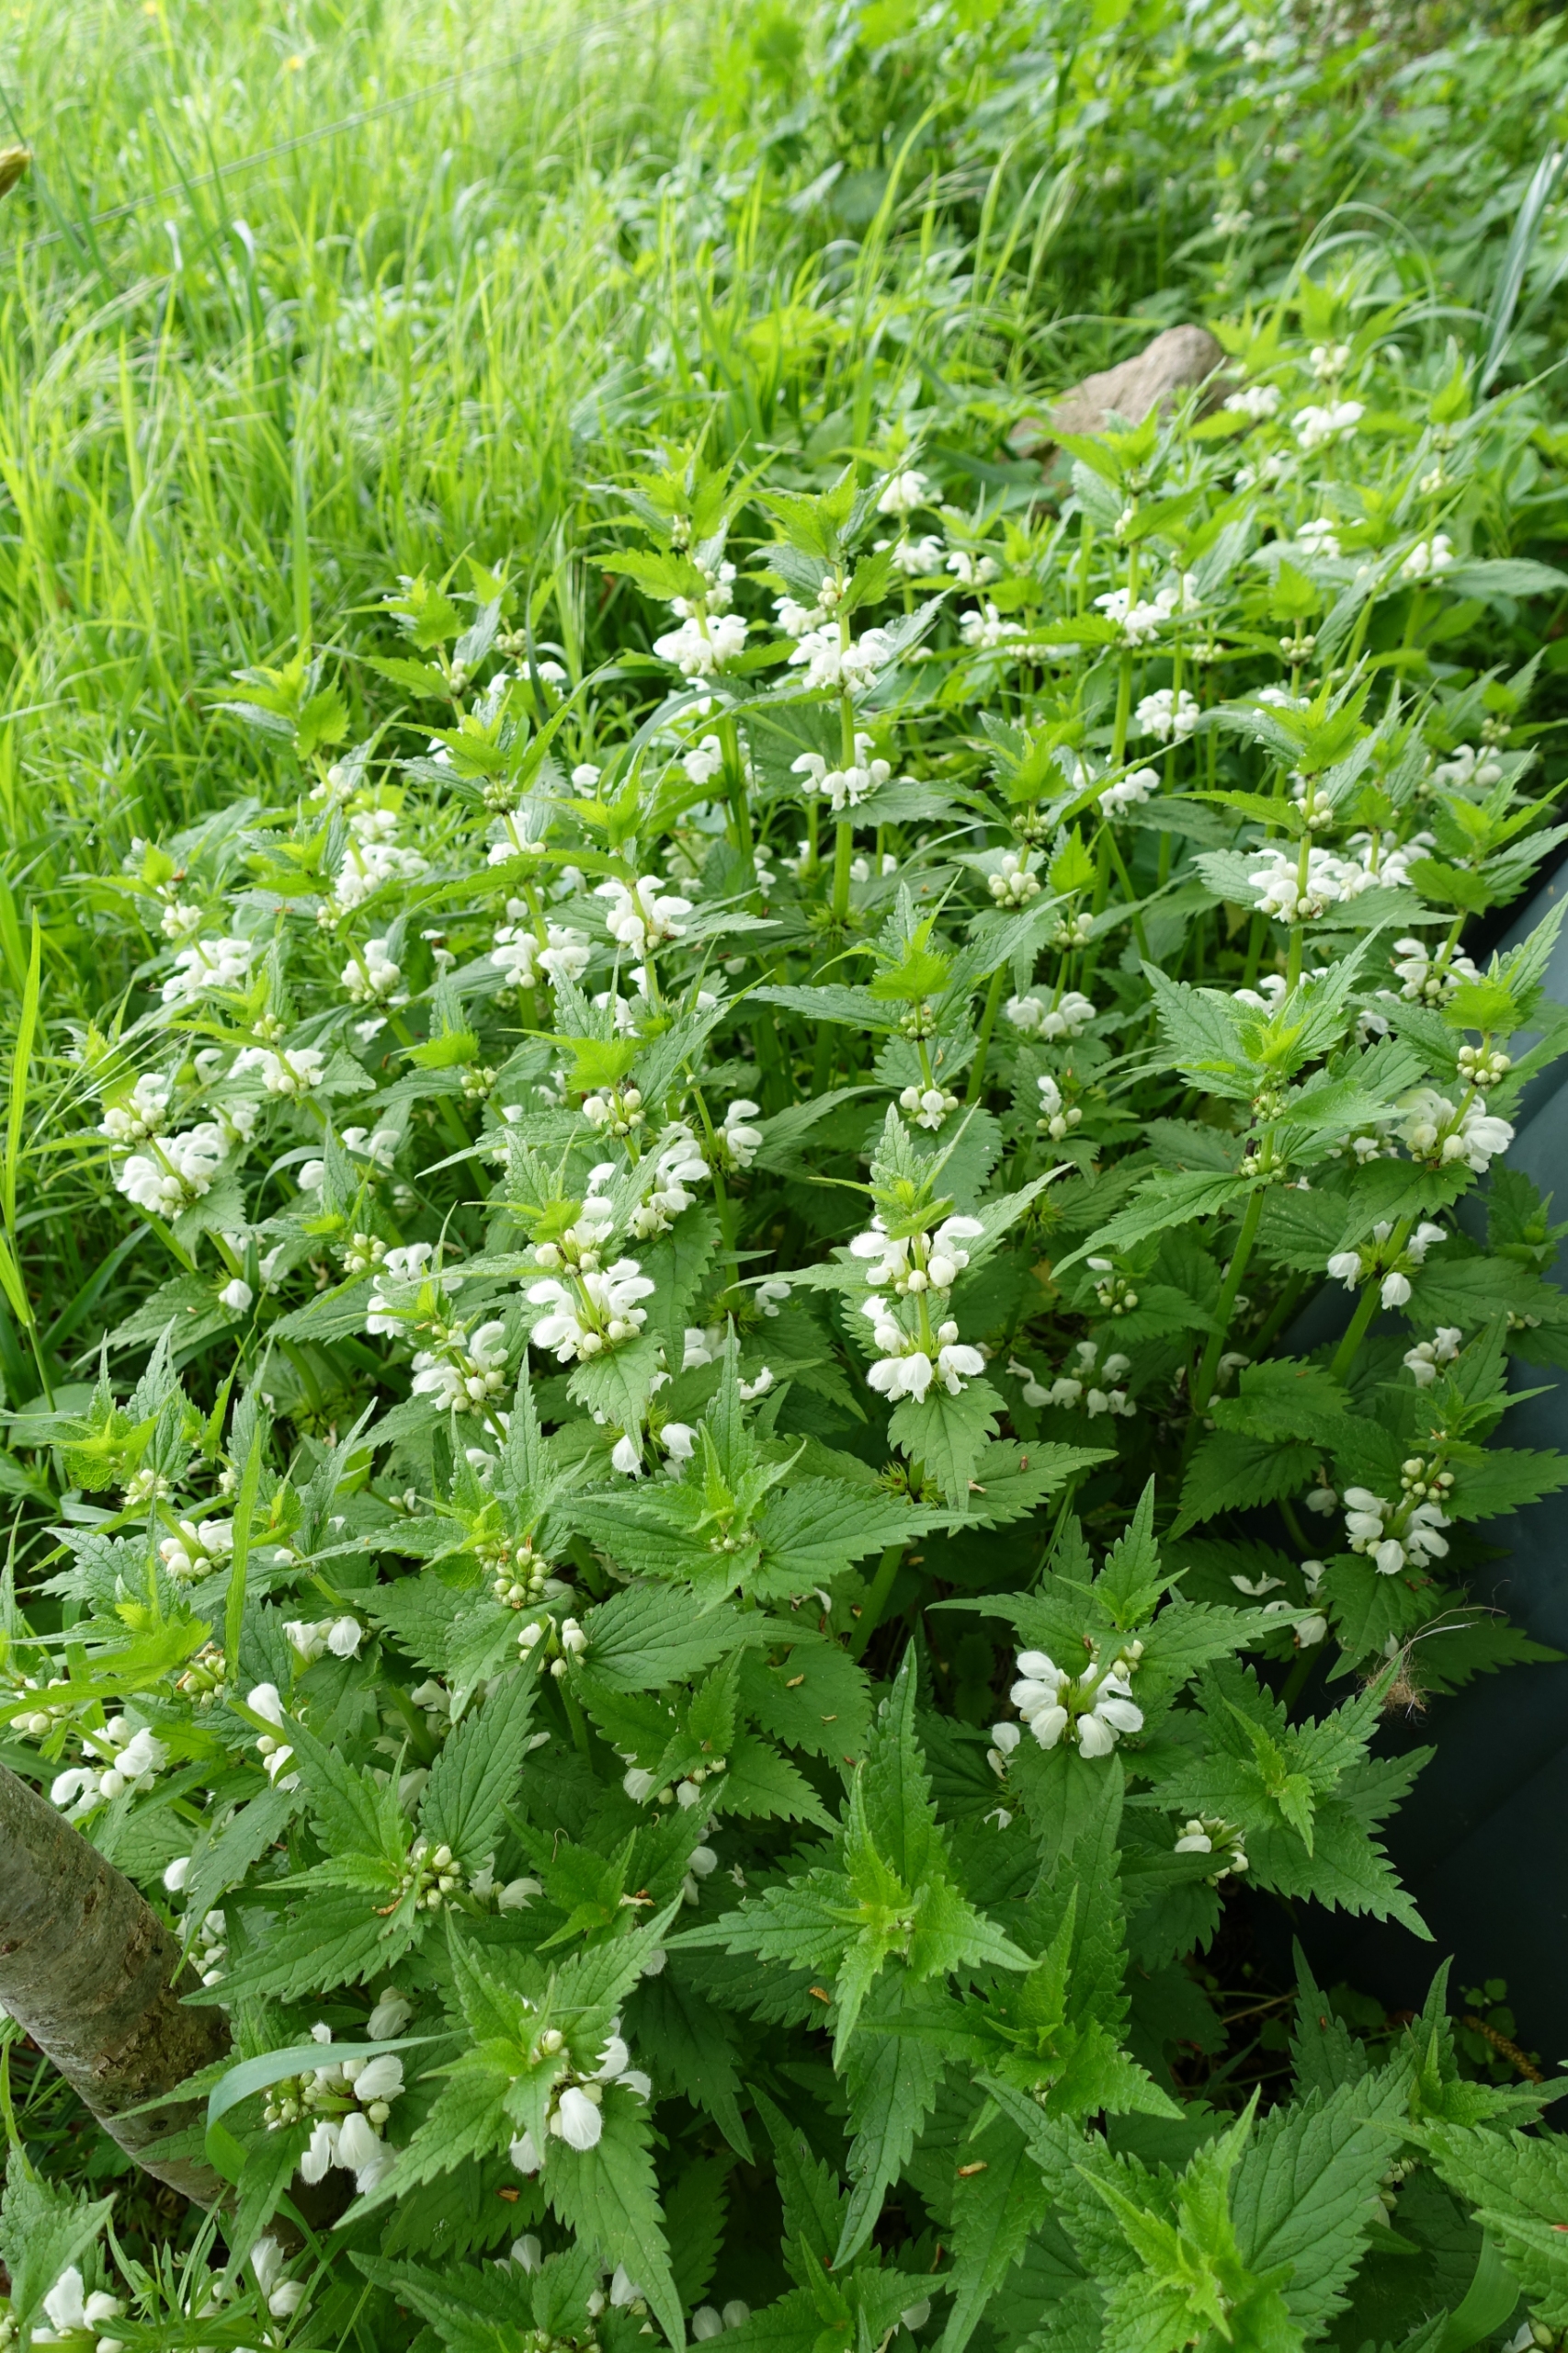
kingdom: Plantae
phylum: Tracheophyta
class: Magnoliopsida
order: Lamiales
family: Lamiaceae
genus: Lamium
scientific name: Lamium album
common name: Døvnælde
